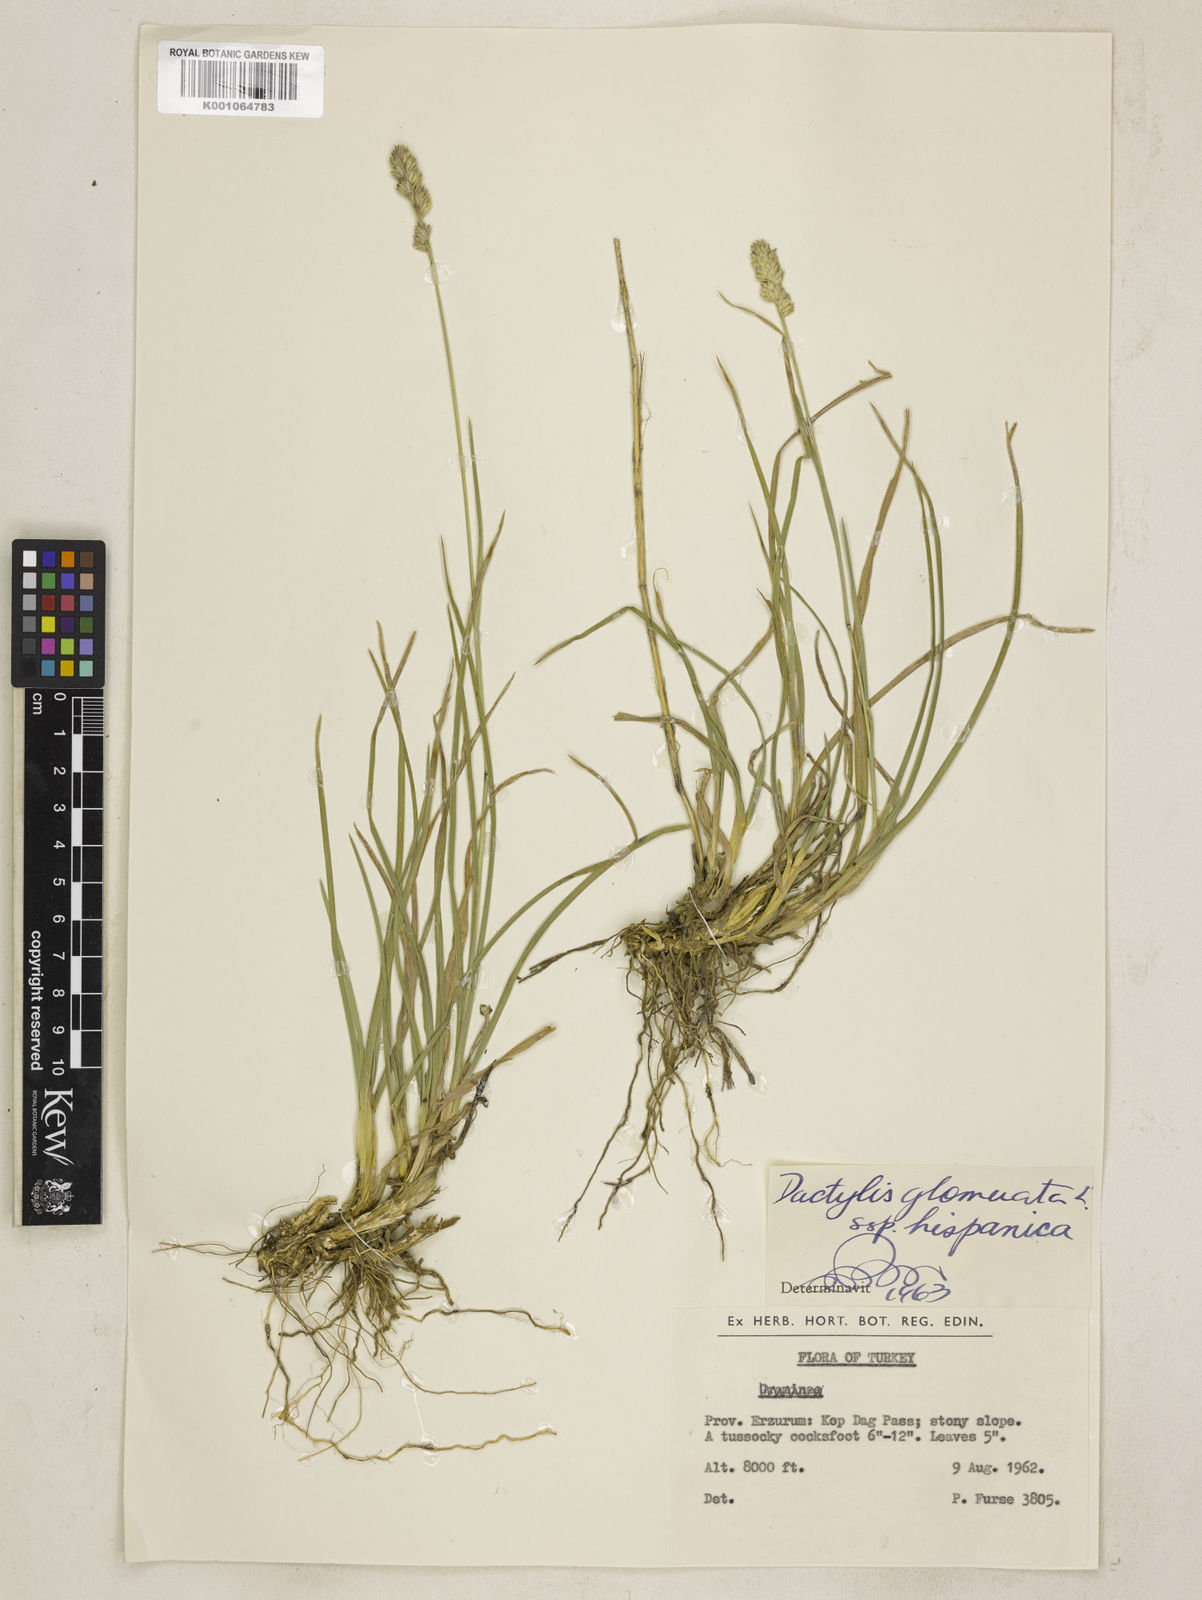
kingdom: Plantae
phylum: Tracheophyta
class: Liliopsida
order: Poales
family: Poaceae
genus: Dactylis
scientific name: Dactylis glomerata
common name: Orchardgrass
